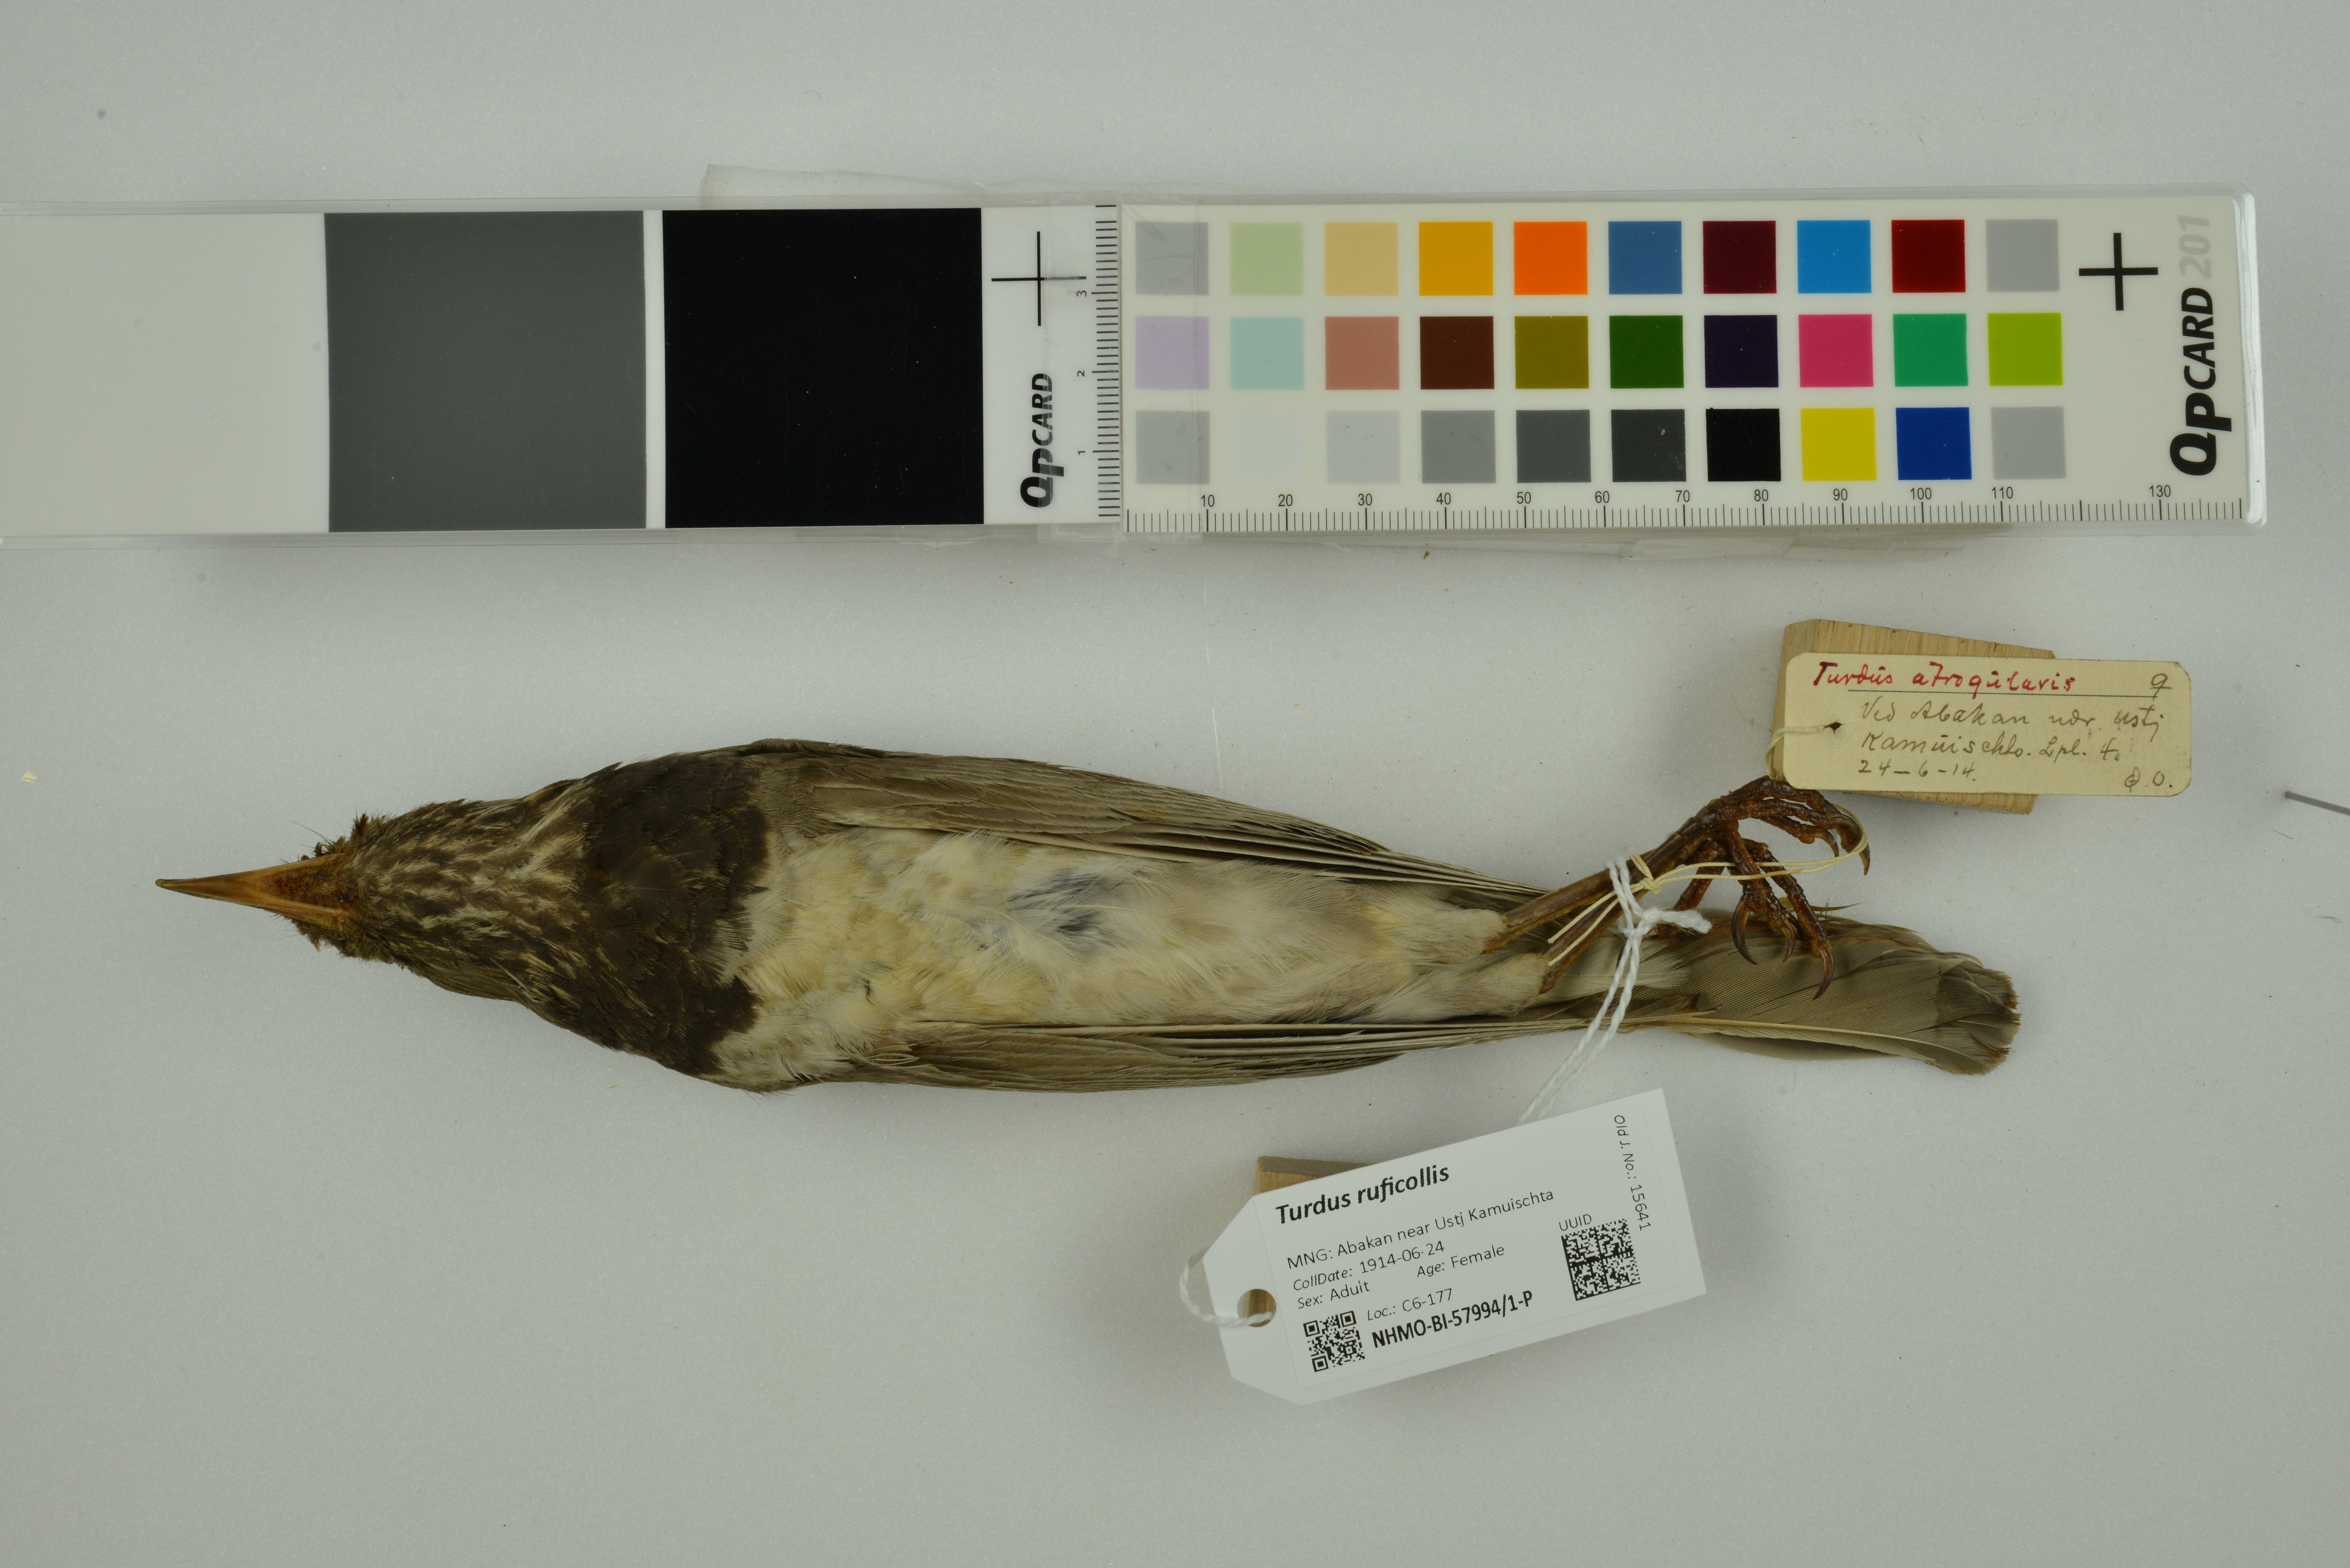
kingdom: Animalia
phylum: Chordata
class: Aves
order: Passeriformes
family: Turdidae
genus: Turdus
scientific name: Turdus ruficollis
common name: Red-throated thrush
